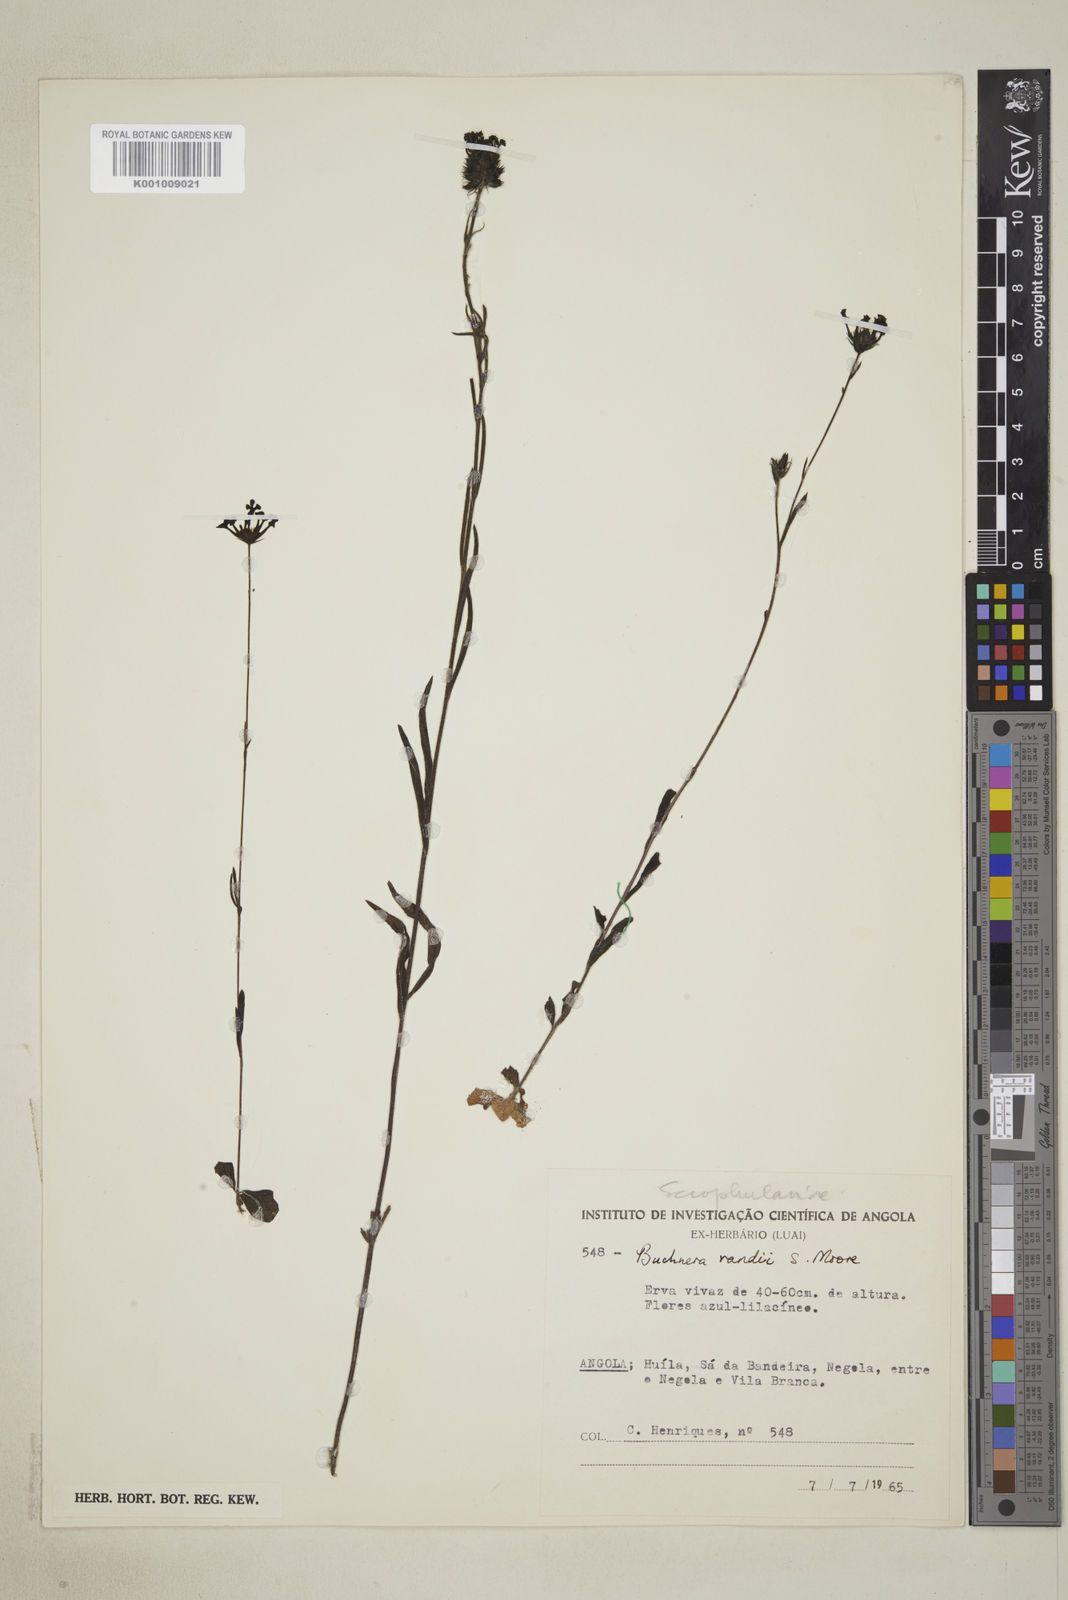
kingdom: Plantae
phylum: Tracheophyta
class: Magnoliopsida
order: Lamiales
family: Orobanchaceae
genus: Buchnera
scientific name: Buchnera randii
